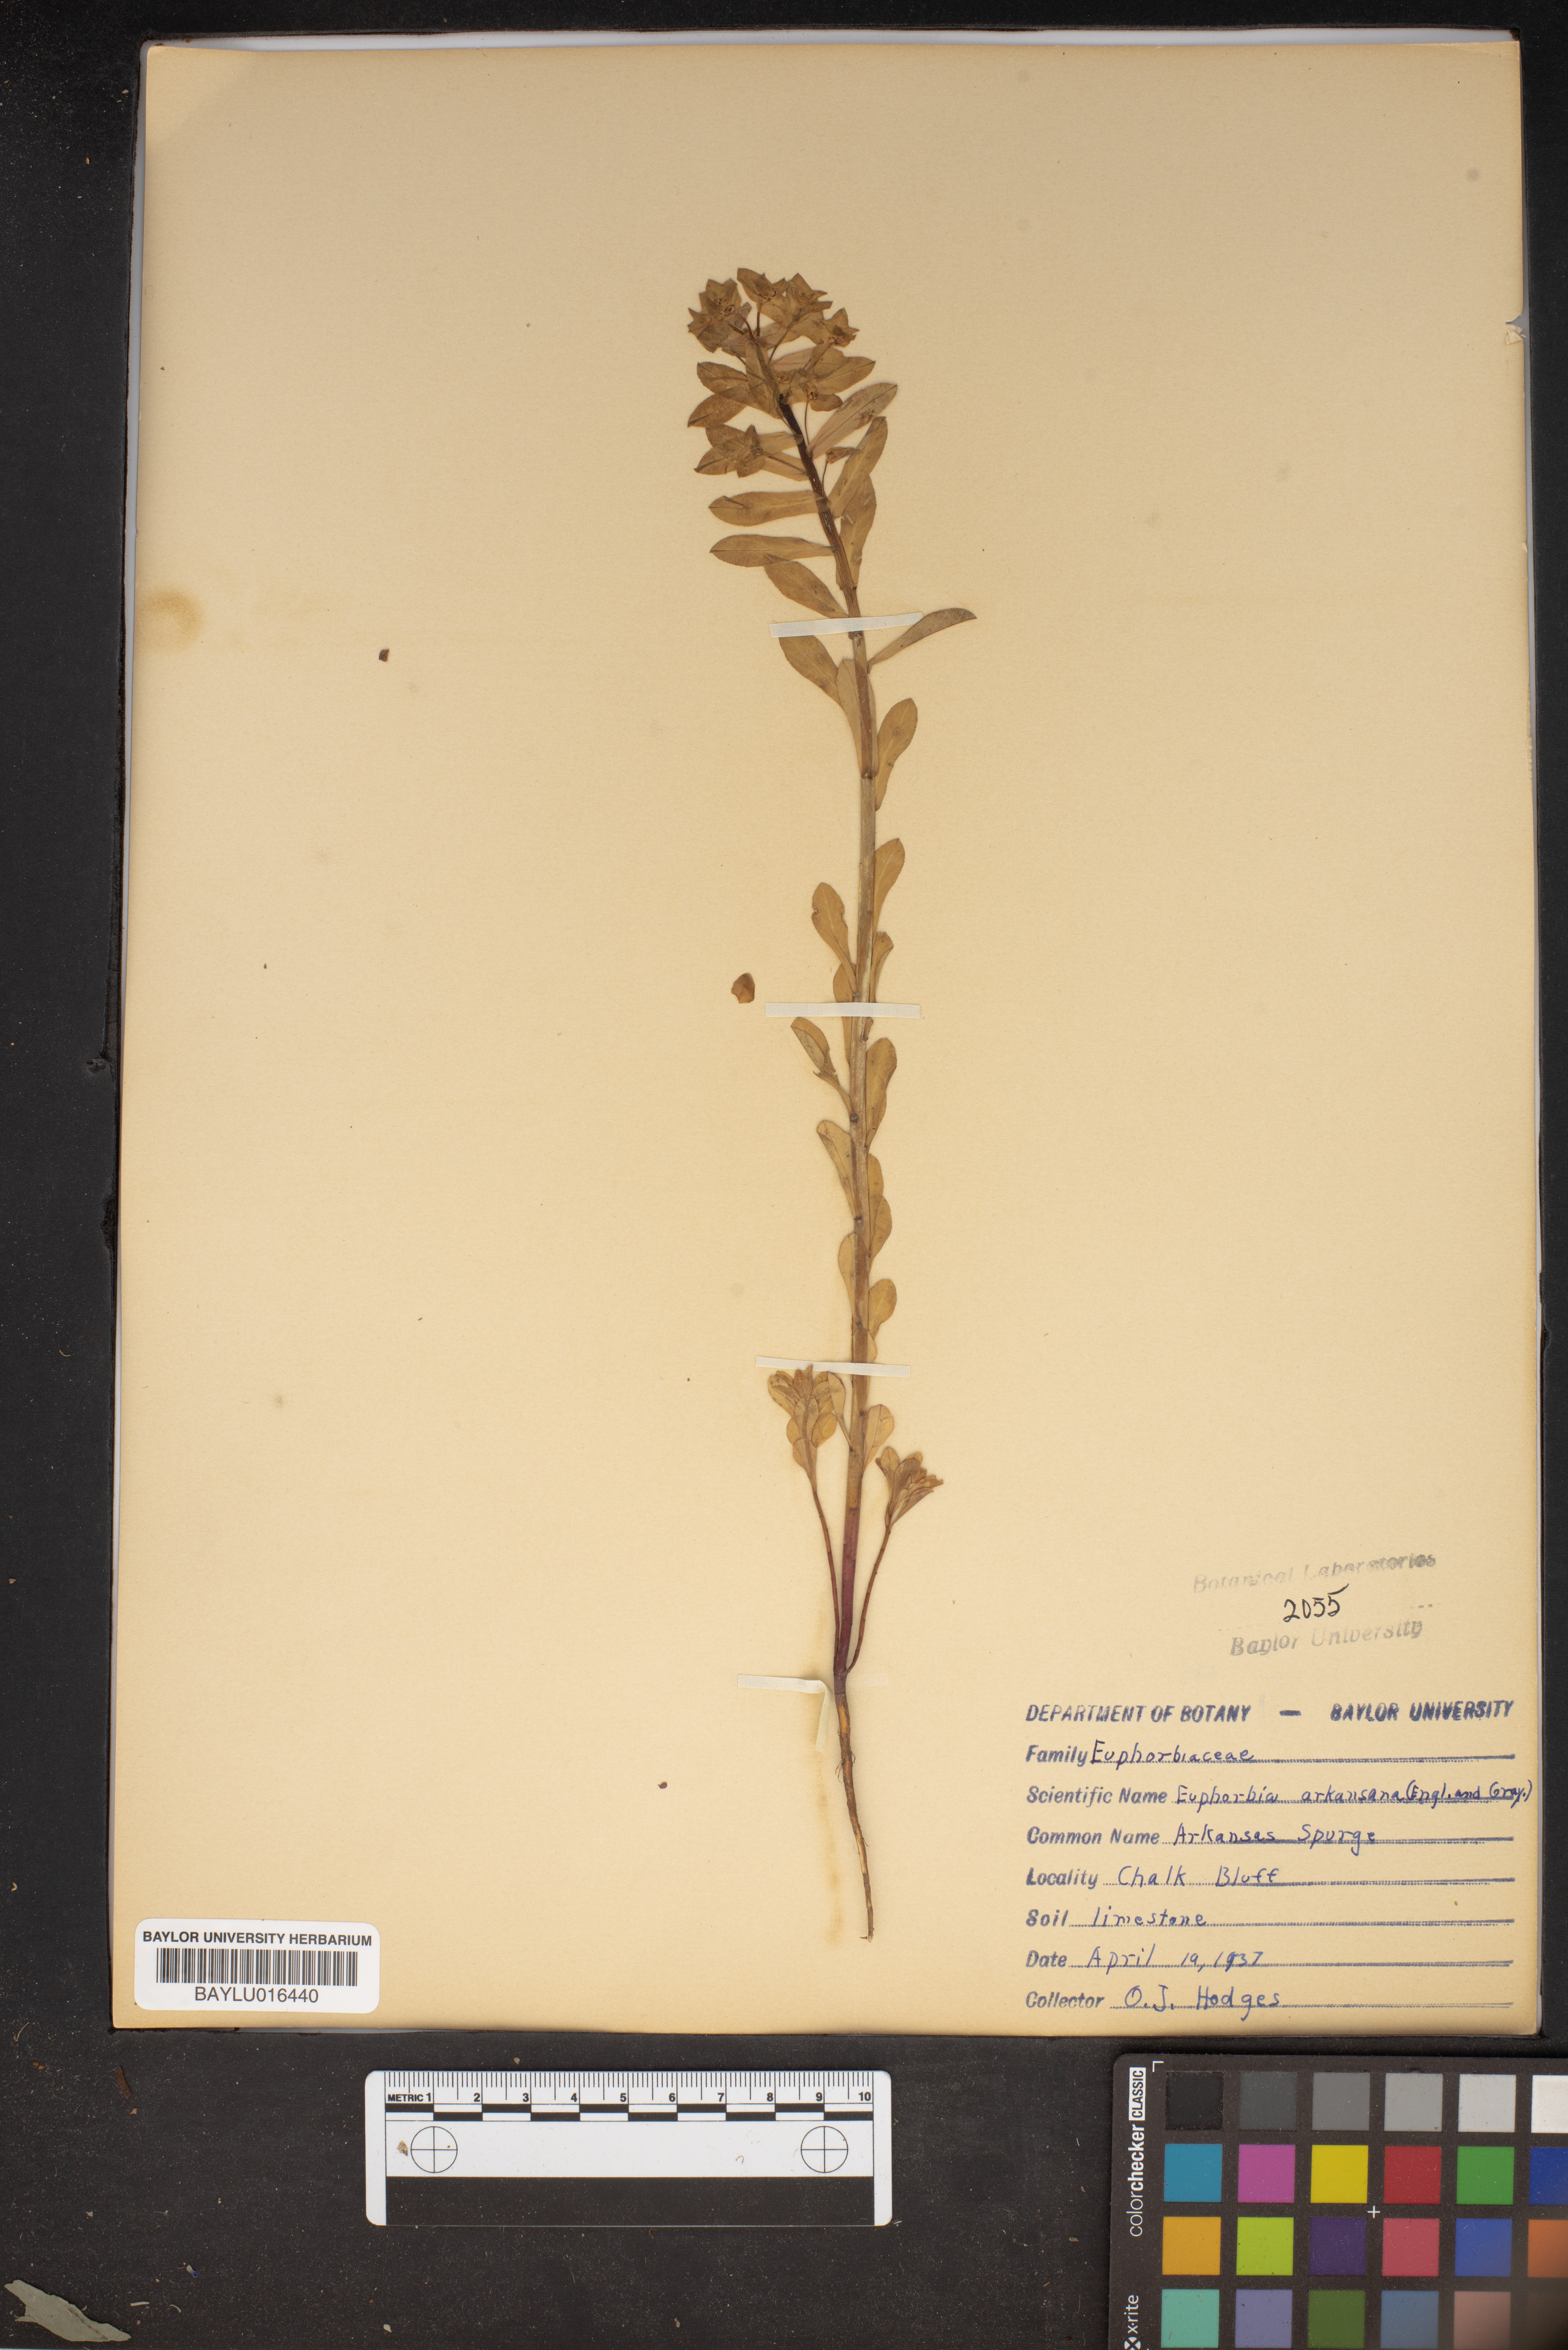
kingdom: Plantae
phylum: Tracheophyta
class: Magnoliopsida
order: Malpighiales
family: Euphorbiaceae
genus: Euphorbia
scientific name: Euphorbia spathulata
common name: Blunt spurge
